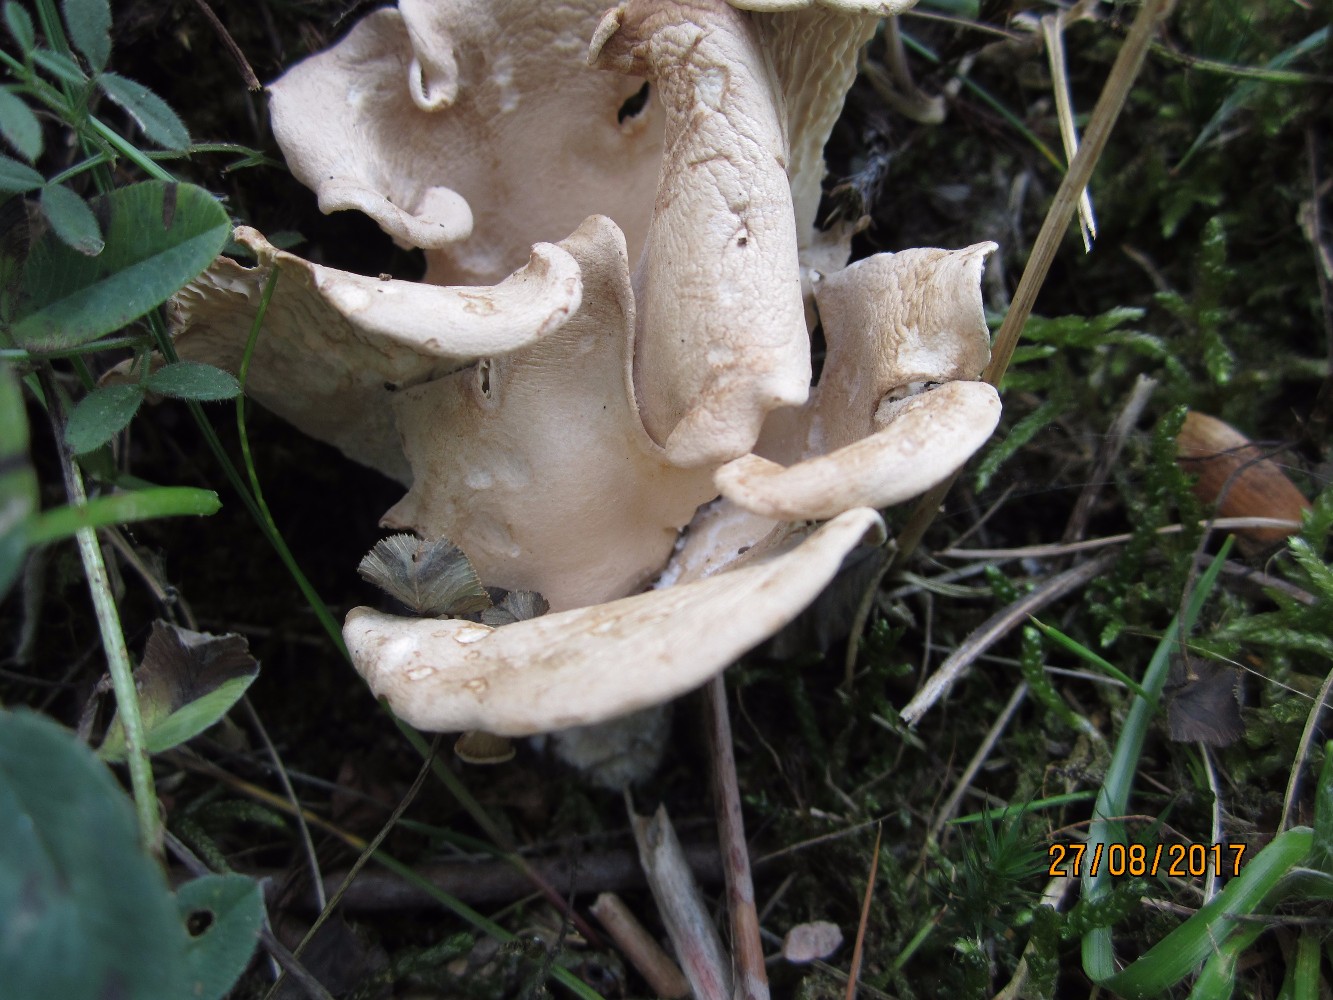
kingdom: Fungi
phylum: Basidiomycota
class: Agaricomycetes
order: Agaricales
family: Pleurotaceae
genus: Hohenbuehelia
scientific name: Hohenbuehelia petaloides
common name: stor filthat
